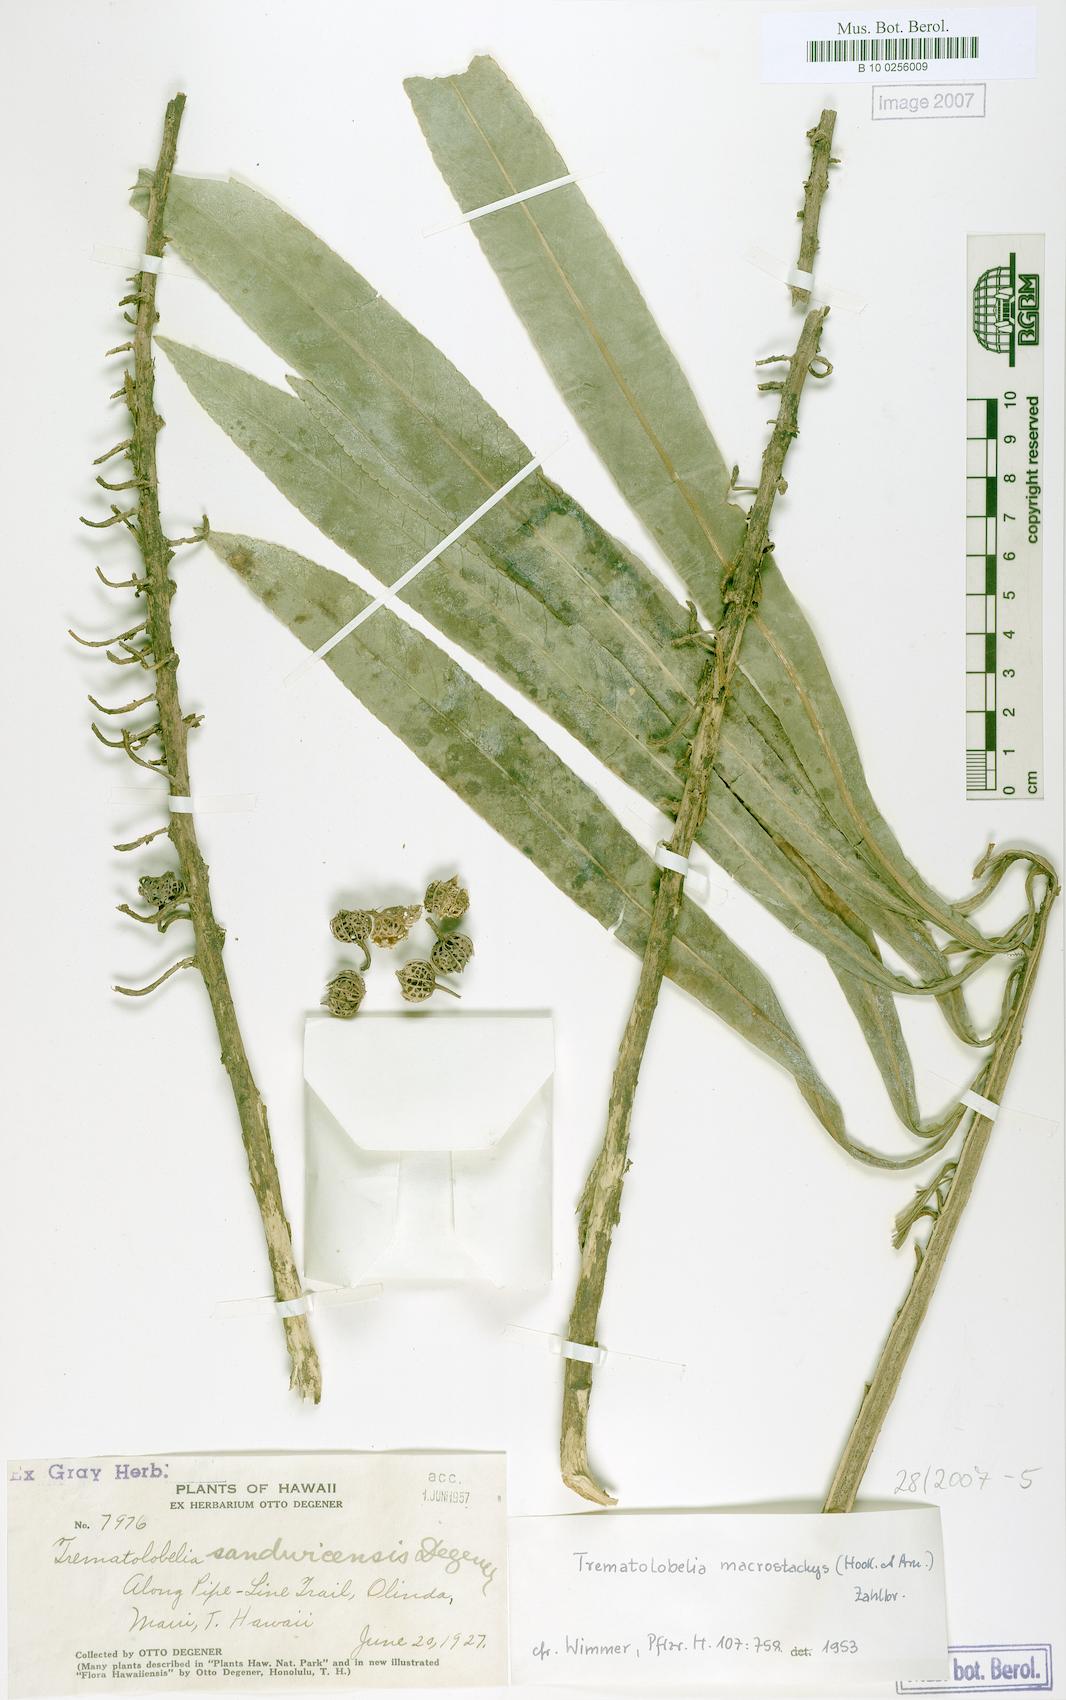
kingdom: Plantae
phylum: Tracheophyta
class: Magnoliopsida
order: Asterales
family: Campanulaceae
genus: Trematolobelia
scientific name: Trematolobelia macrostachys
